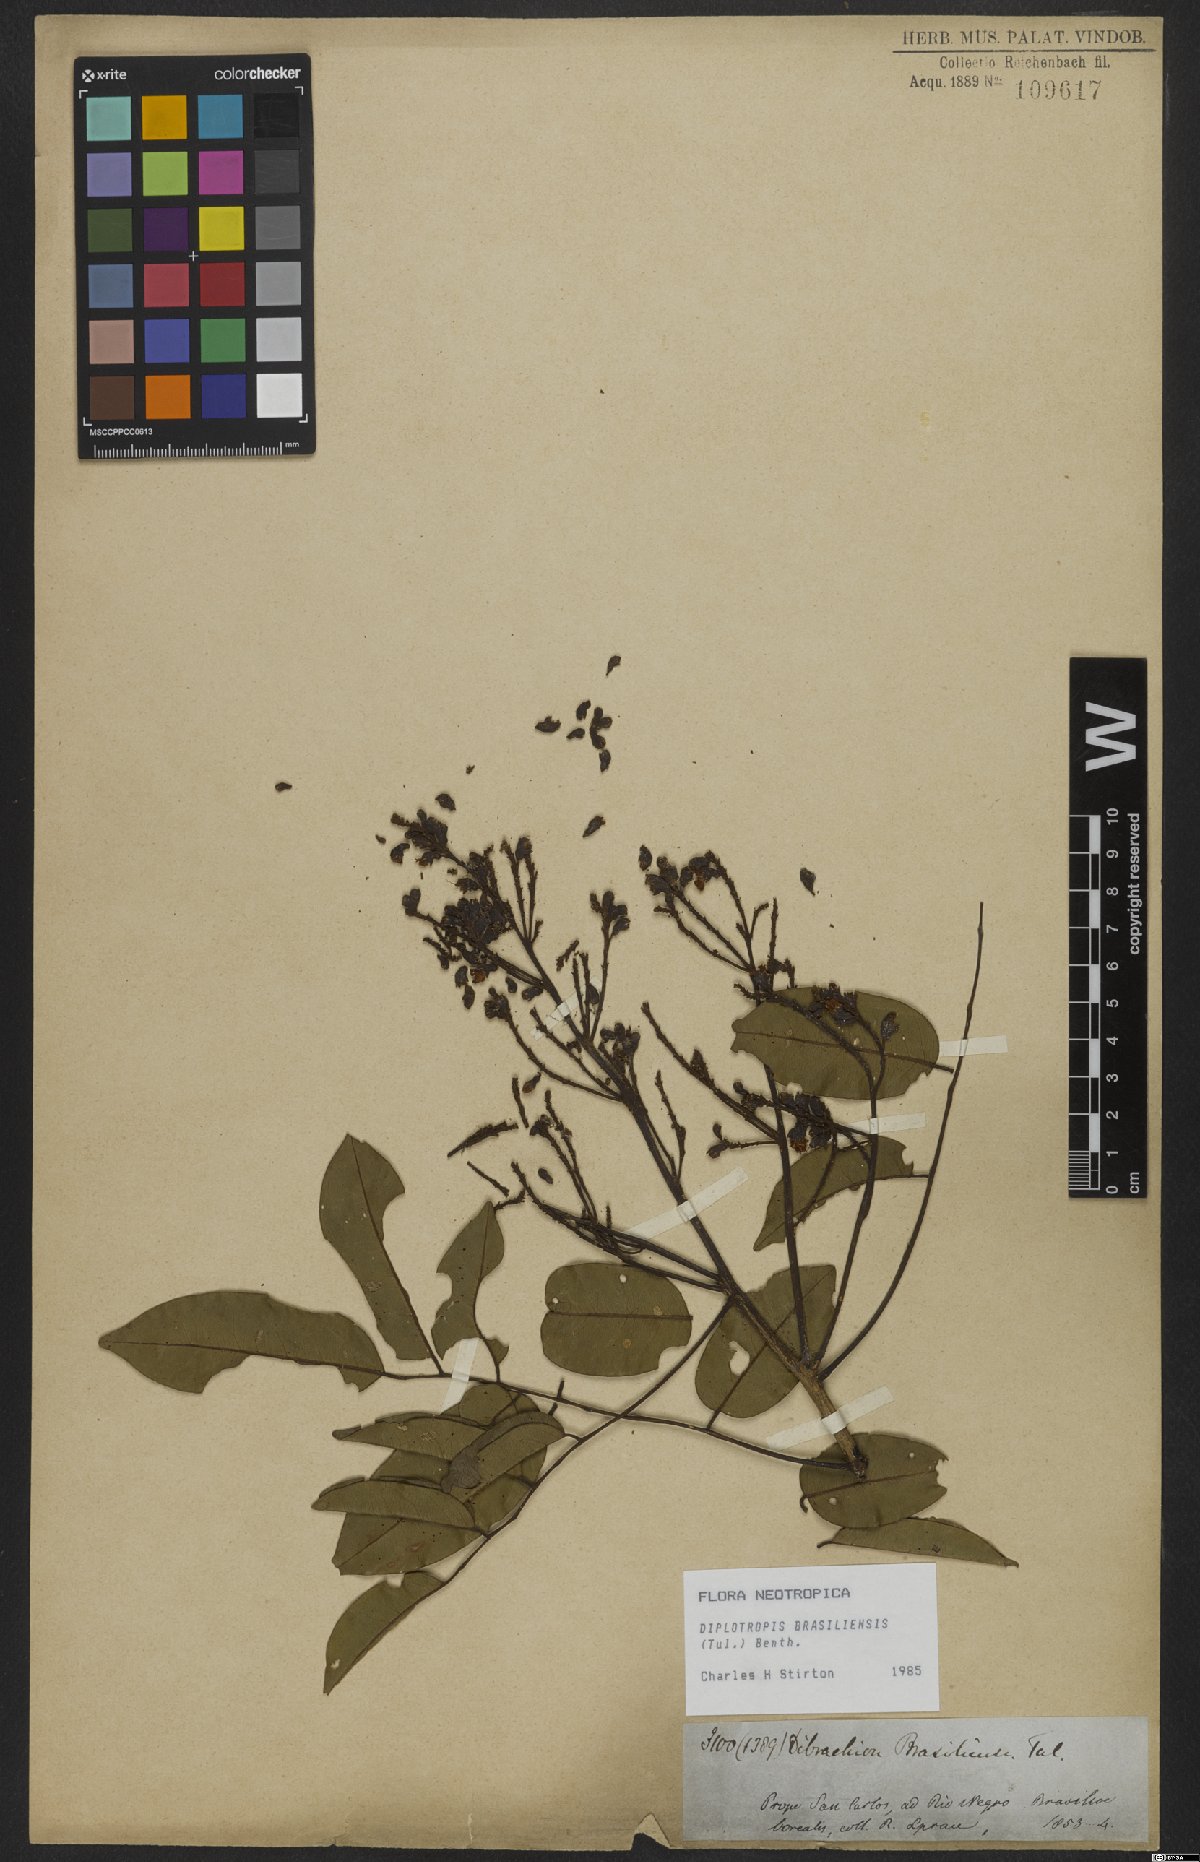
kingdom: Plantae
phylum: Tracheophyta
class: Magnoliopsida
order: Fabales
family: Fabaceae
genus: Diplotropis
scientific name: Diplotropis brasiliensis
